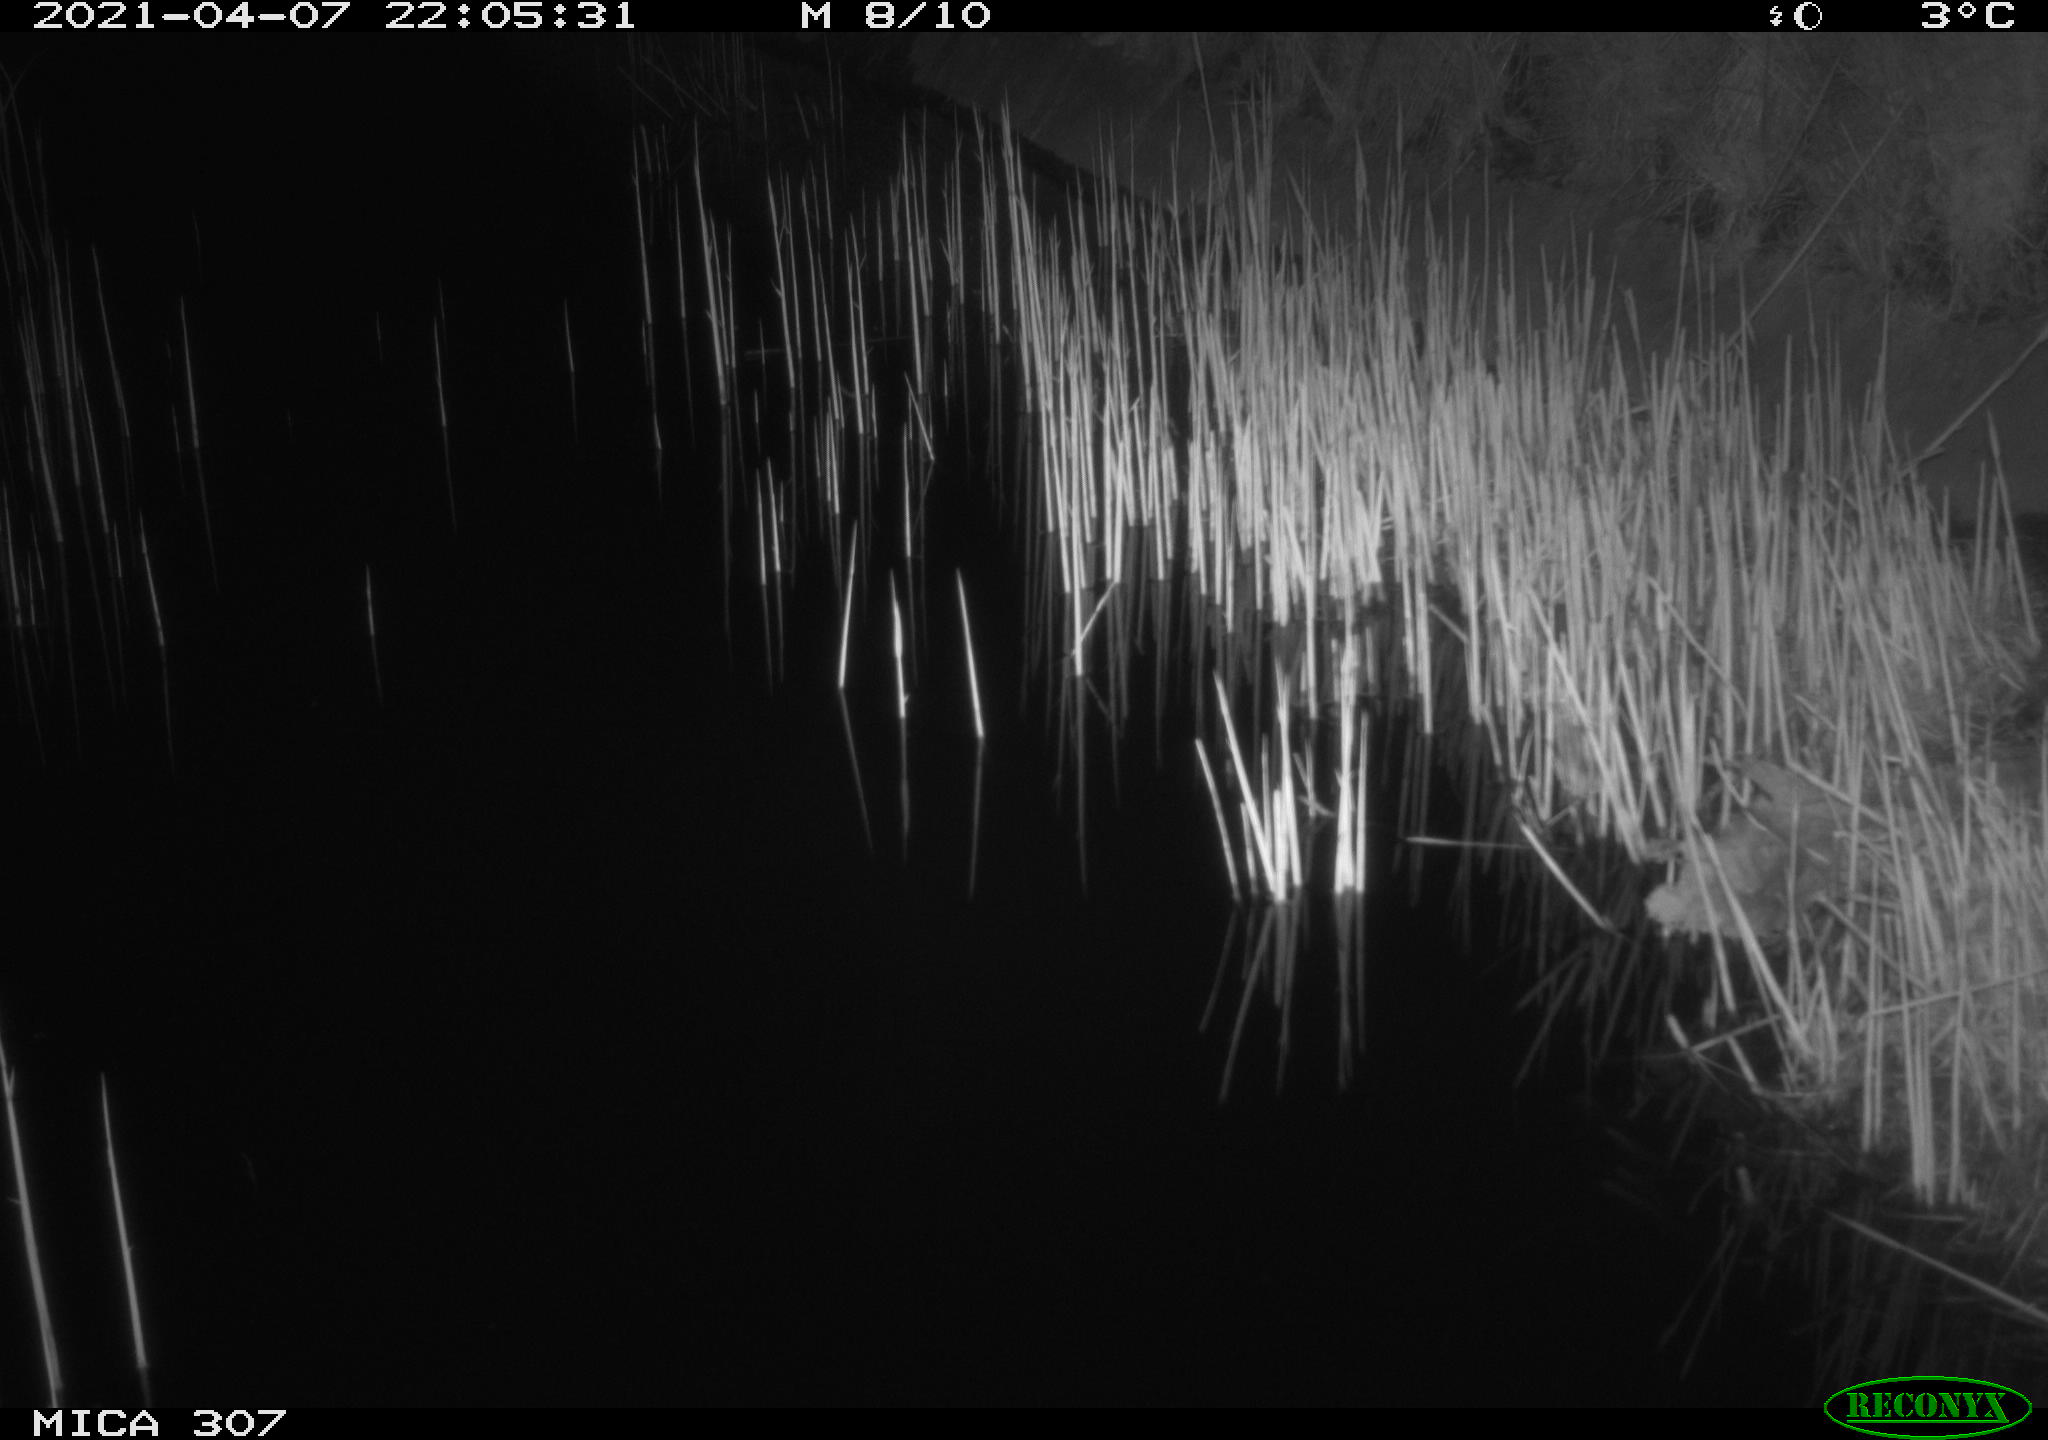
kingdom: Animalia
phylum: Chordata
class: Mammalia
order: Rodentia
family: Cricetidae
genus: Ondatra
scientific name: Ondatra zibethicus
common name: Muskrat
